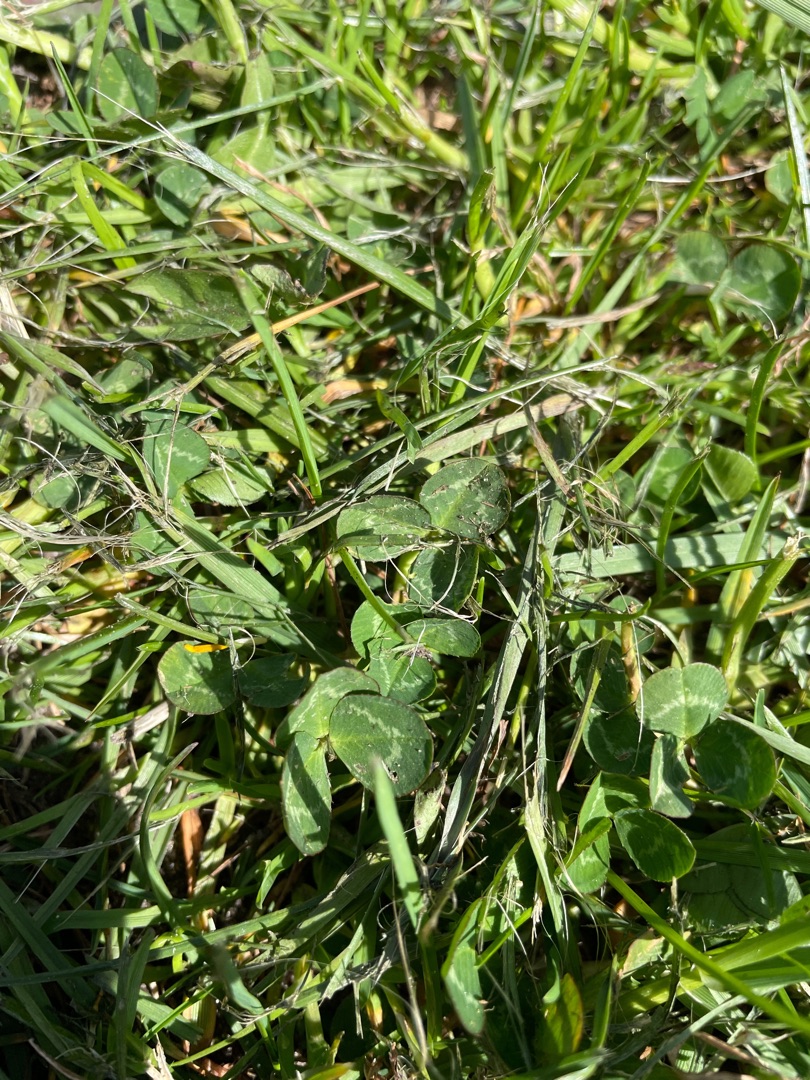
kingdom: Plantae
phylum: Tracheophyta
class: Magnoliopsida
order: Fabales
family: Fabaceae
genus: Trifolium
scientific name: Trifolium repens
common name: Hvid-kløver
